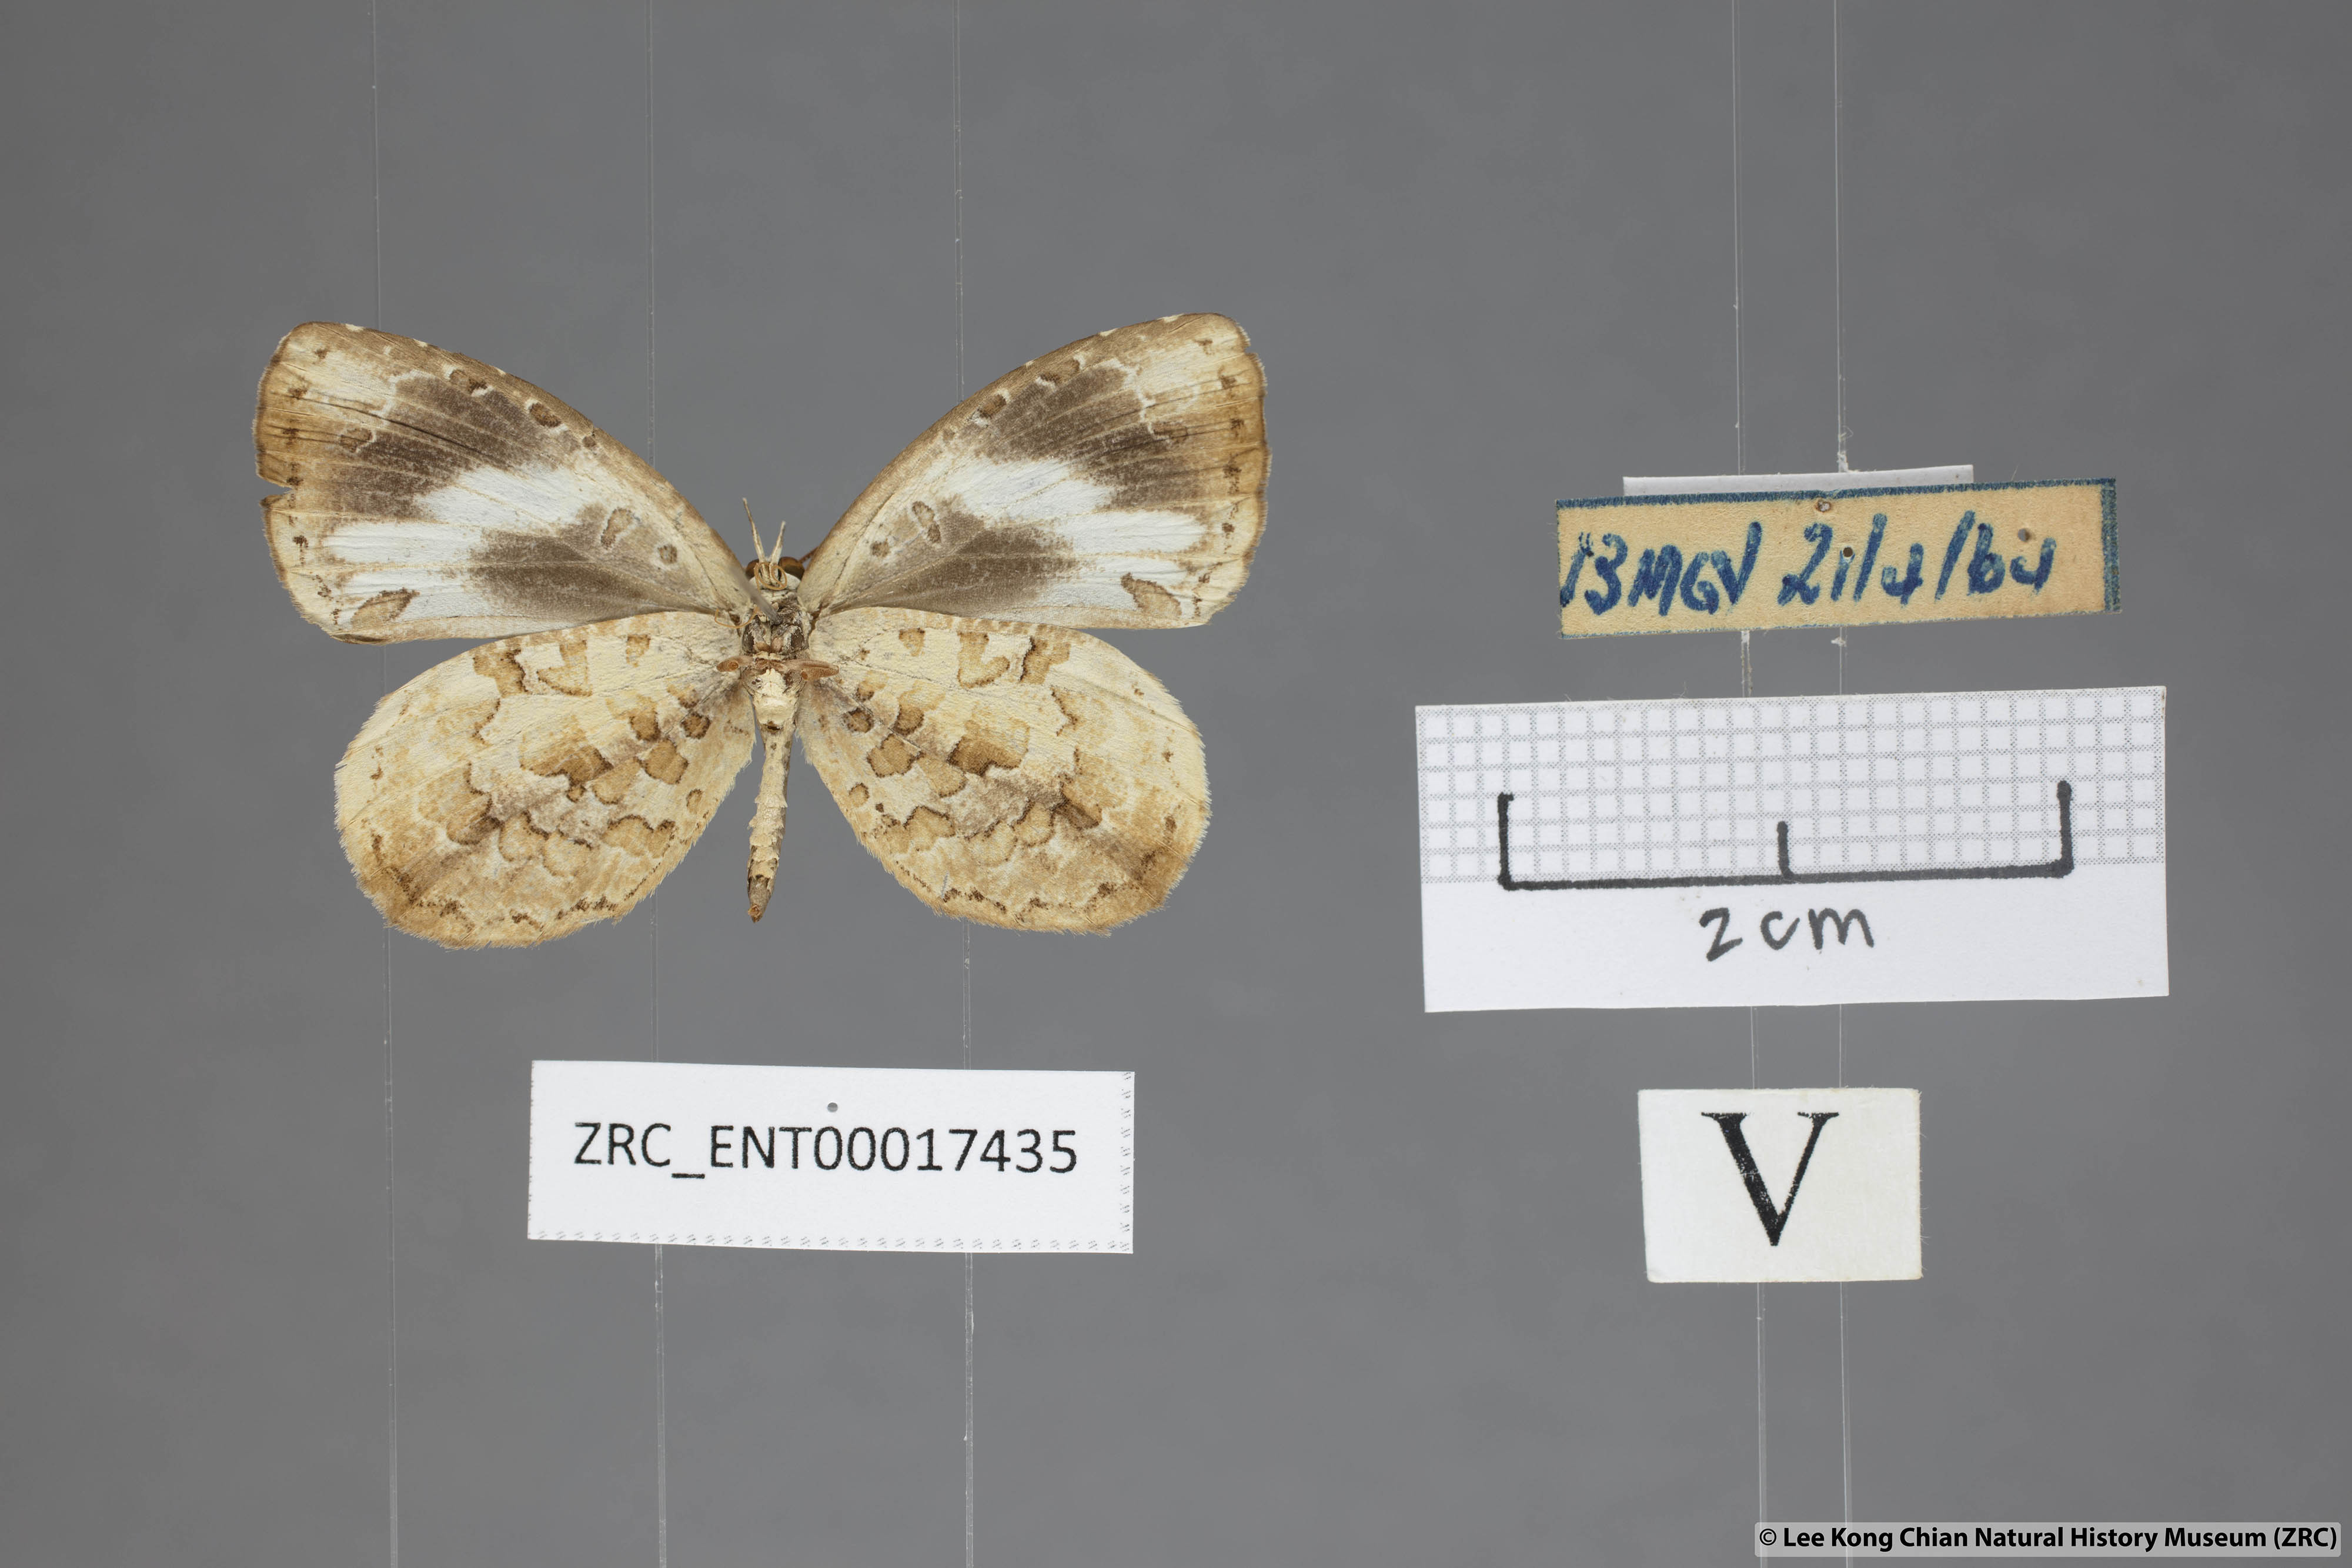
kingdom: Animalia
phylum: Arthropoda
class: Insecta
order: Lepidoptera
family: Lycaenidae
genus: Miletus
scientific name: Miletus gallus
